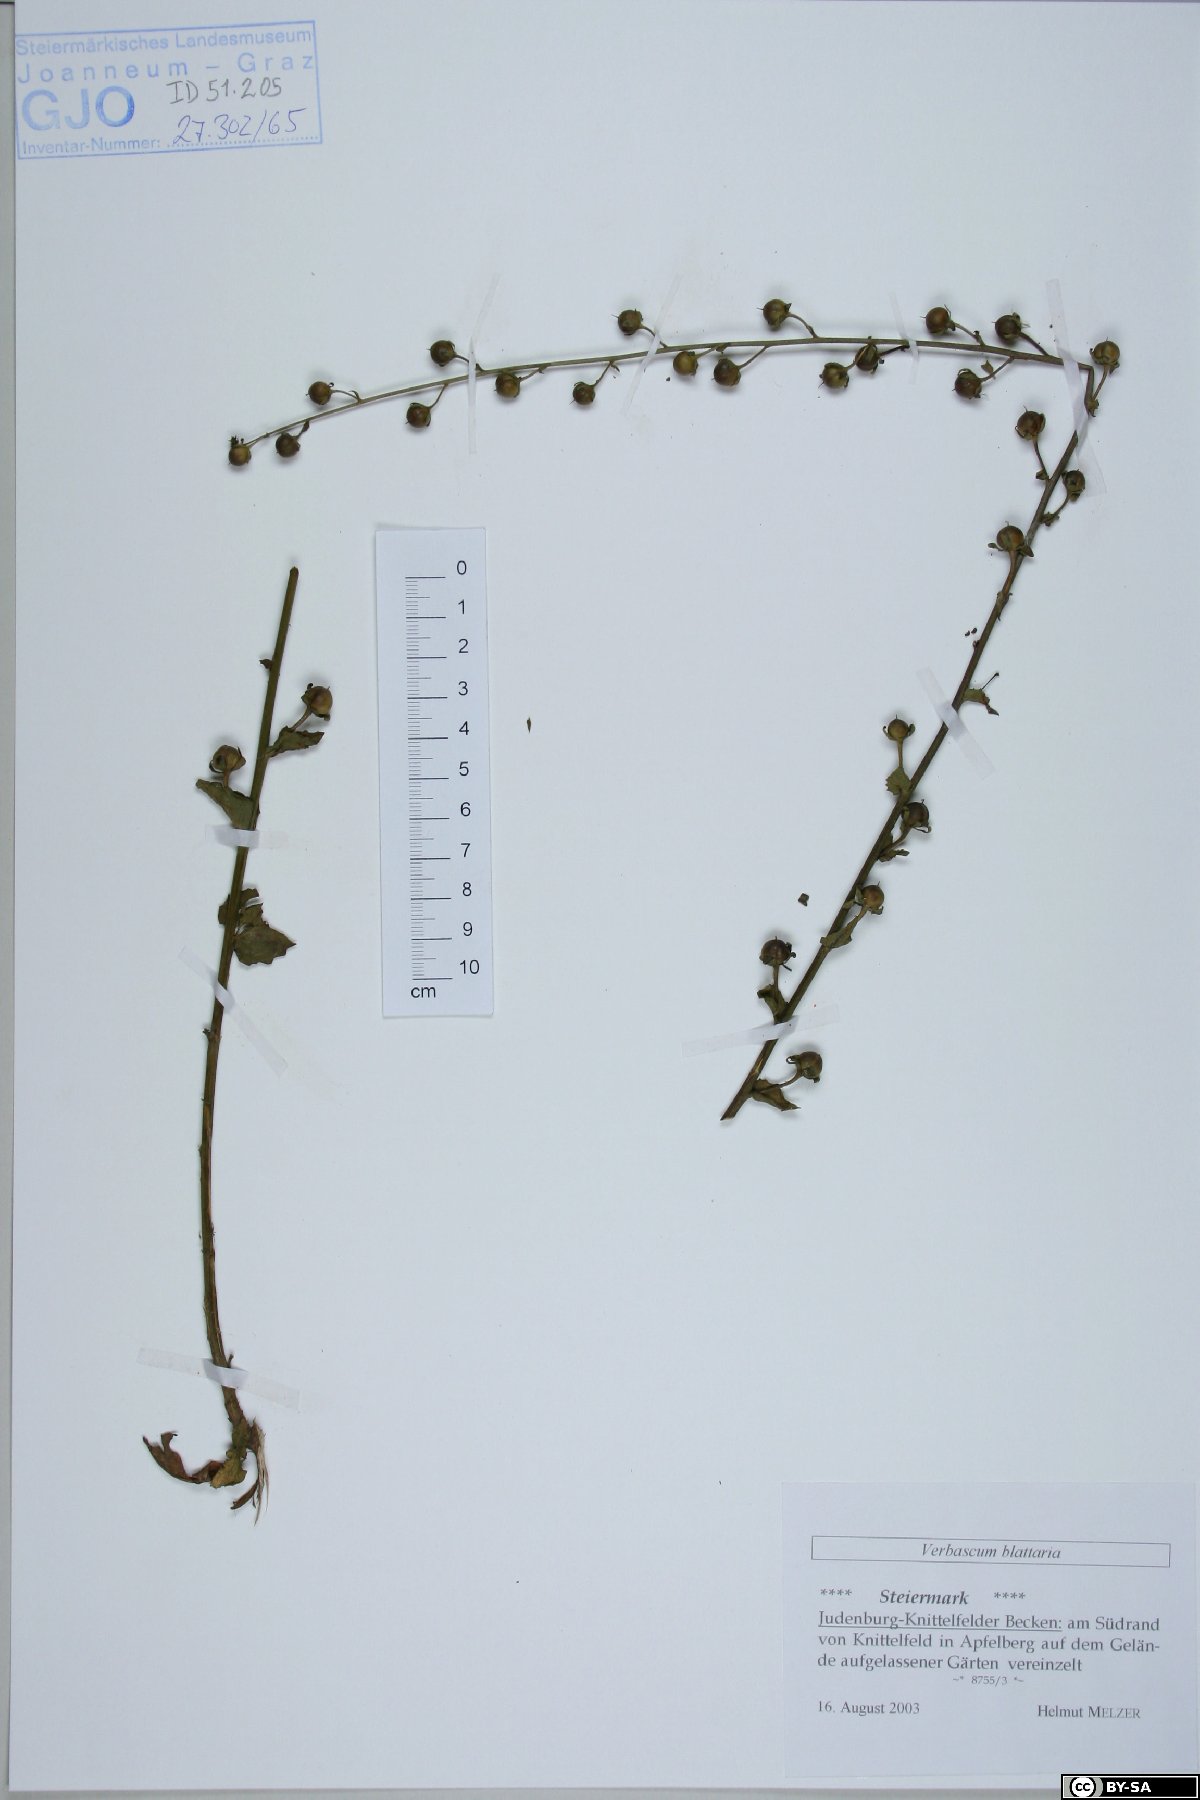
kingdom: Plantae
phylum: Tracheophyta
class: Magnoliopsida
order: Lamiales
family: Scrophulariaceae
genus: Verbascum
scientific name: Verbascum blattaria
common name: Moth mullein
